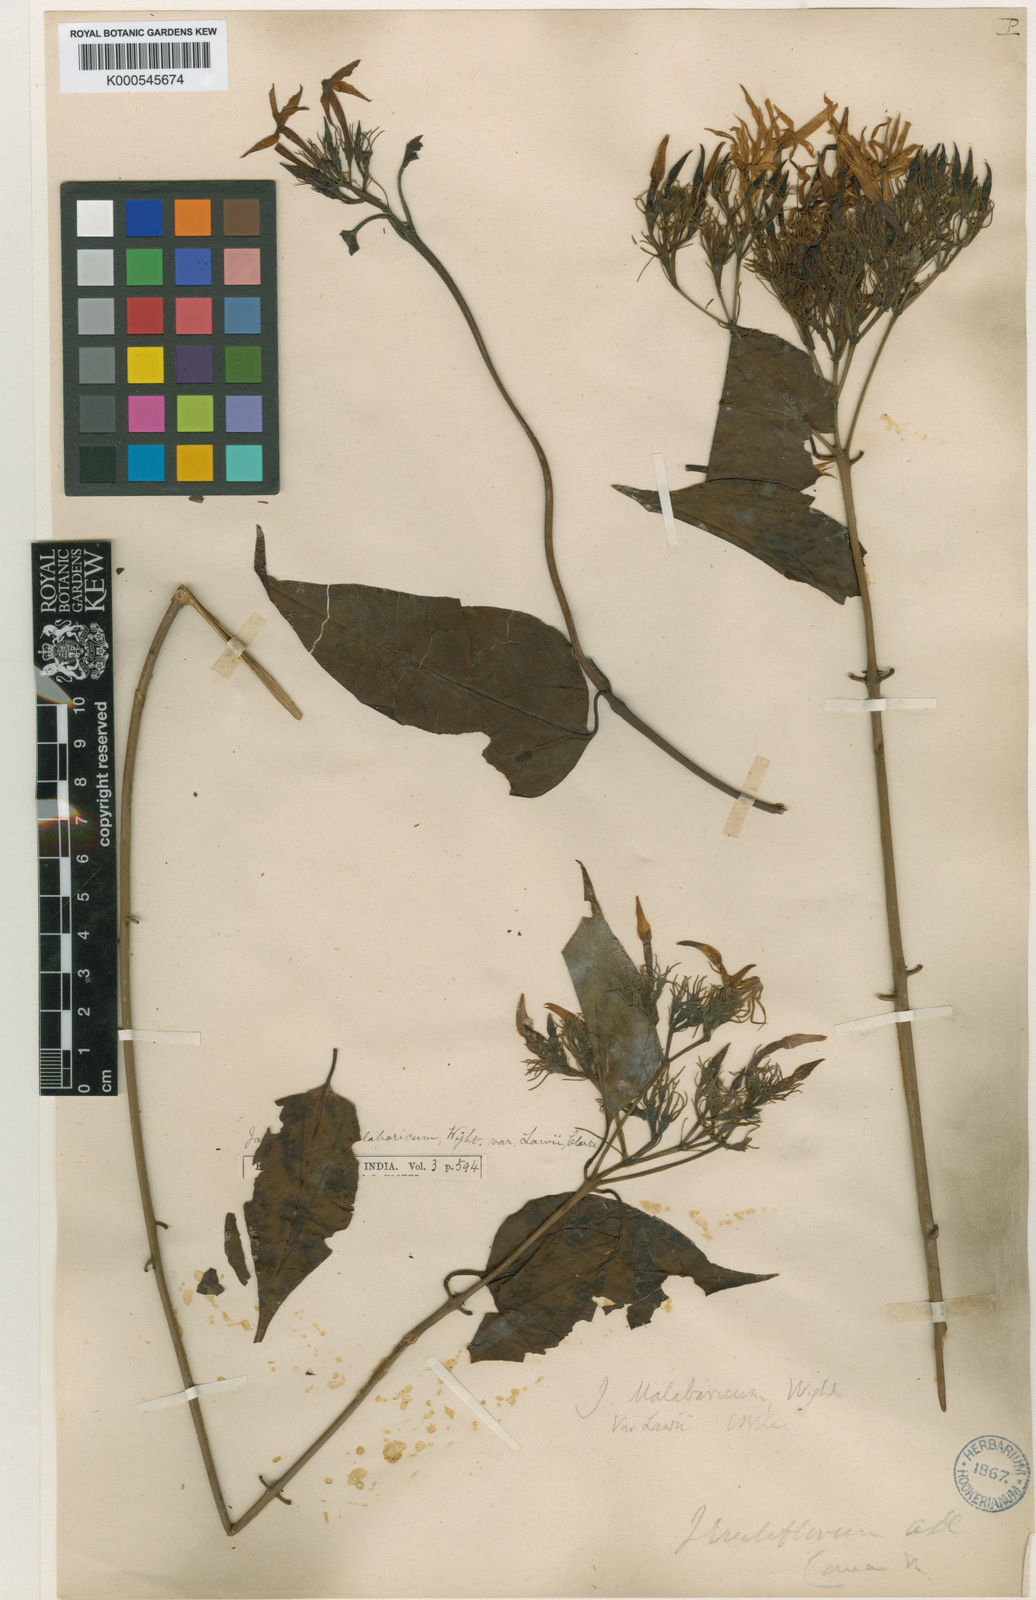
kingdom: Plantae
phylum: Tracheophyta
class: Magnoliopsida
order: Lamiales
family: Oleaceae
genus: Jasminum
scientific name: Jasminum cordifolium
